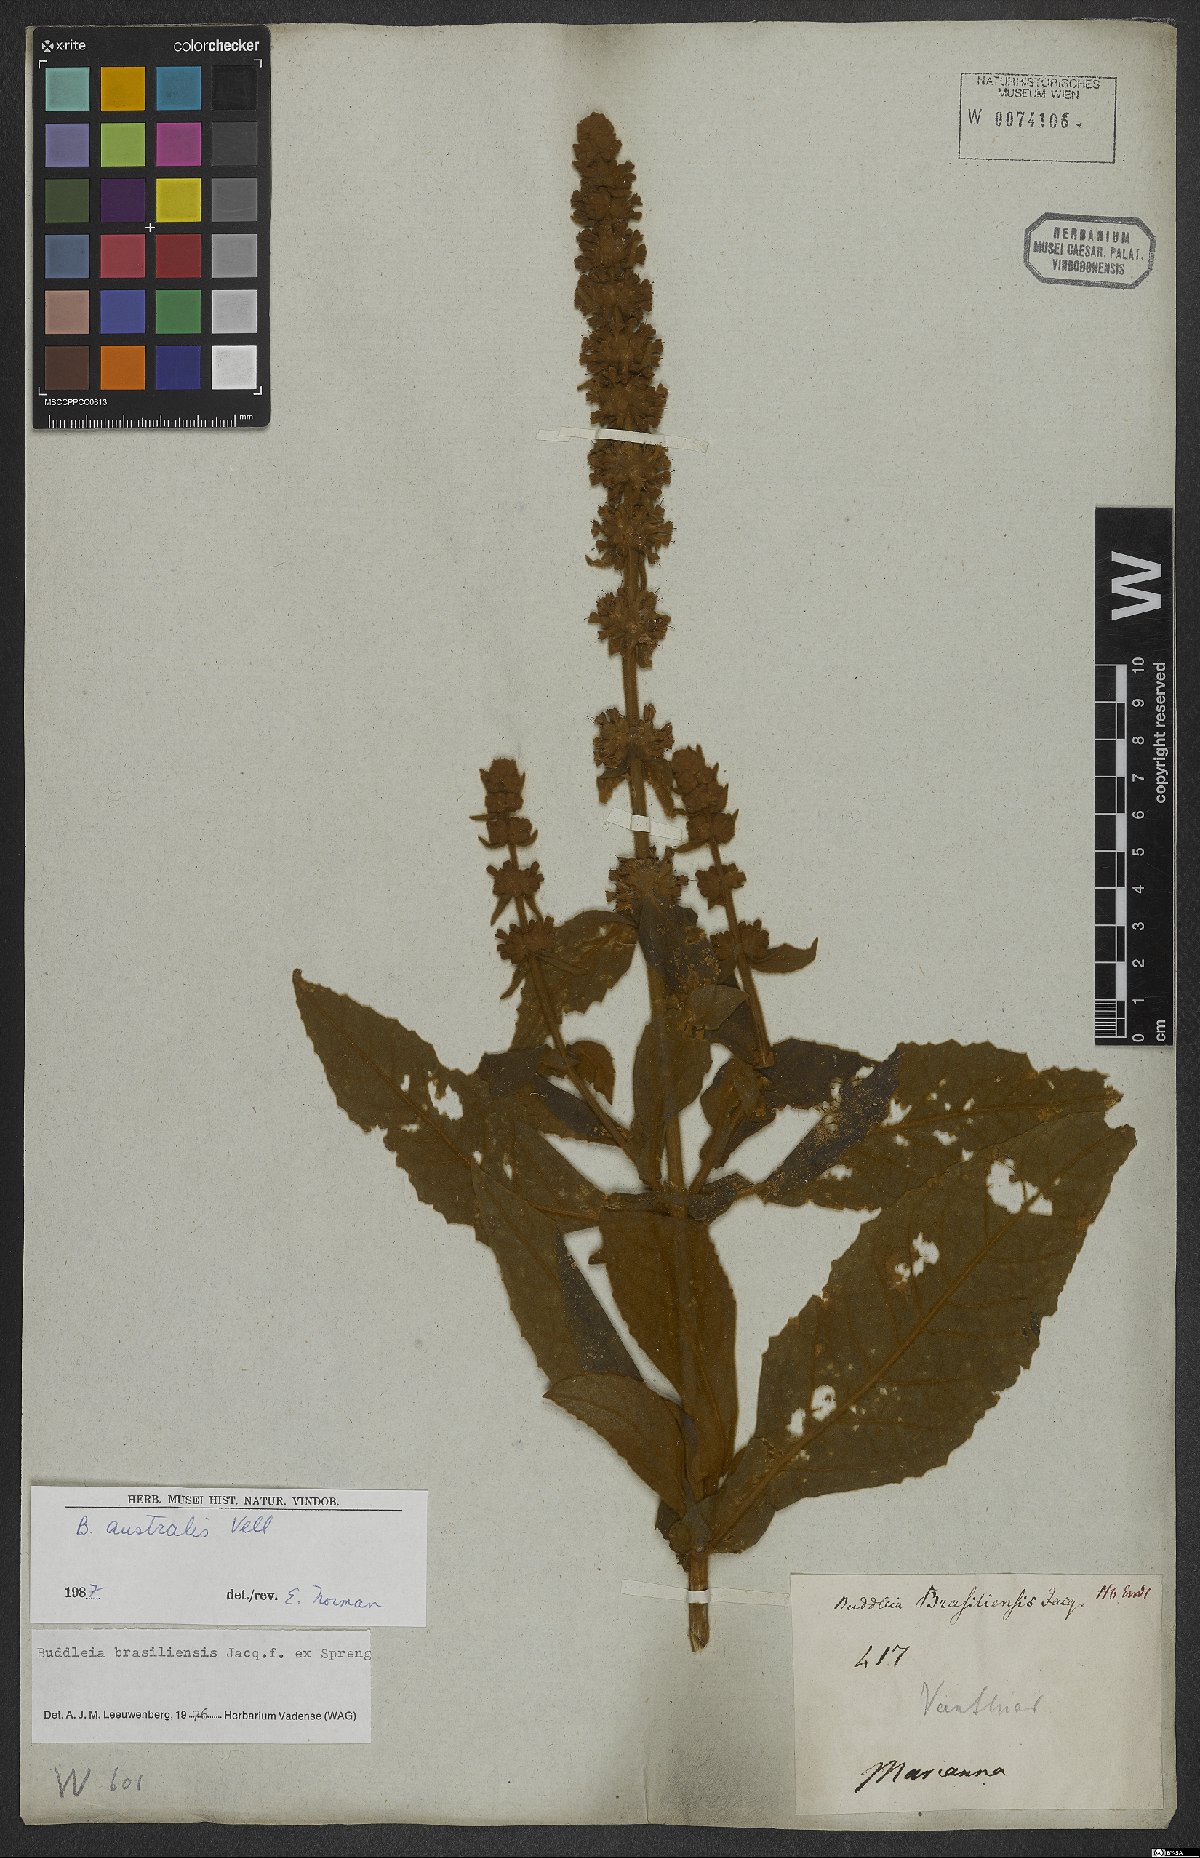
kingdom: Plantae
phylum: Tracheophyta
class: Magnoliopsida
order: Lamiales
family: Scrophulariaceae
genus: Buddleja
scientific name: Buddleja stachyoides
